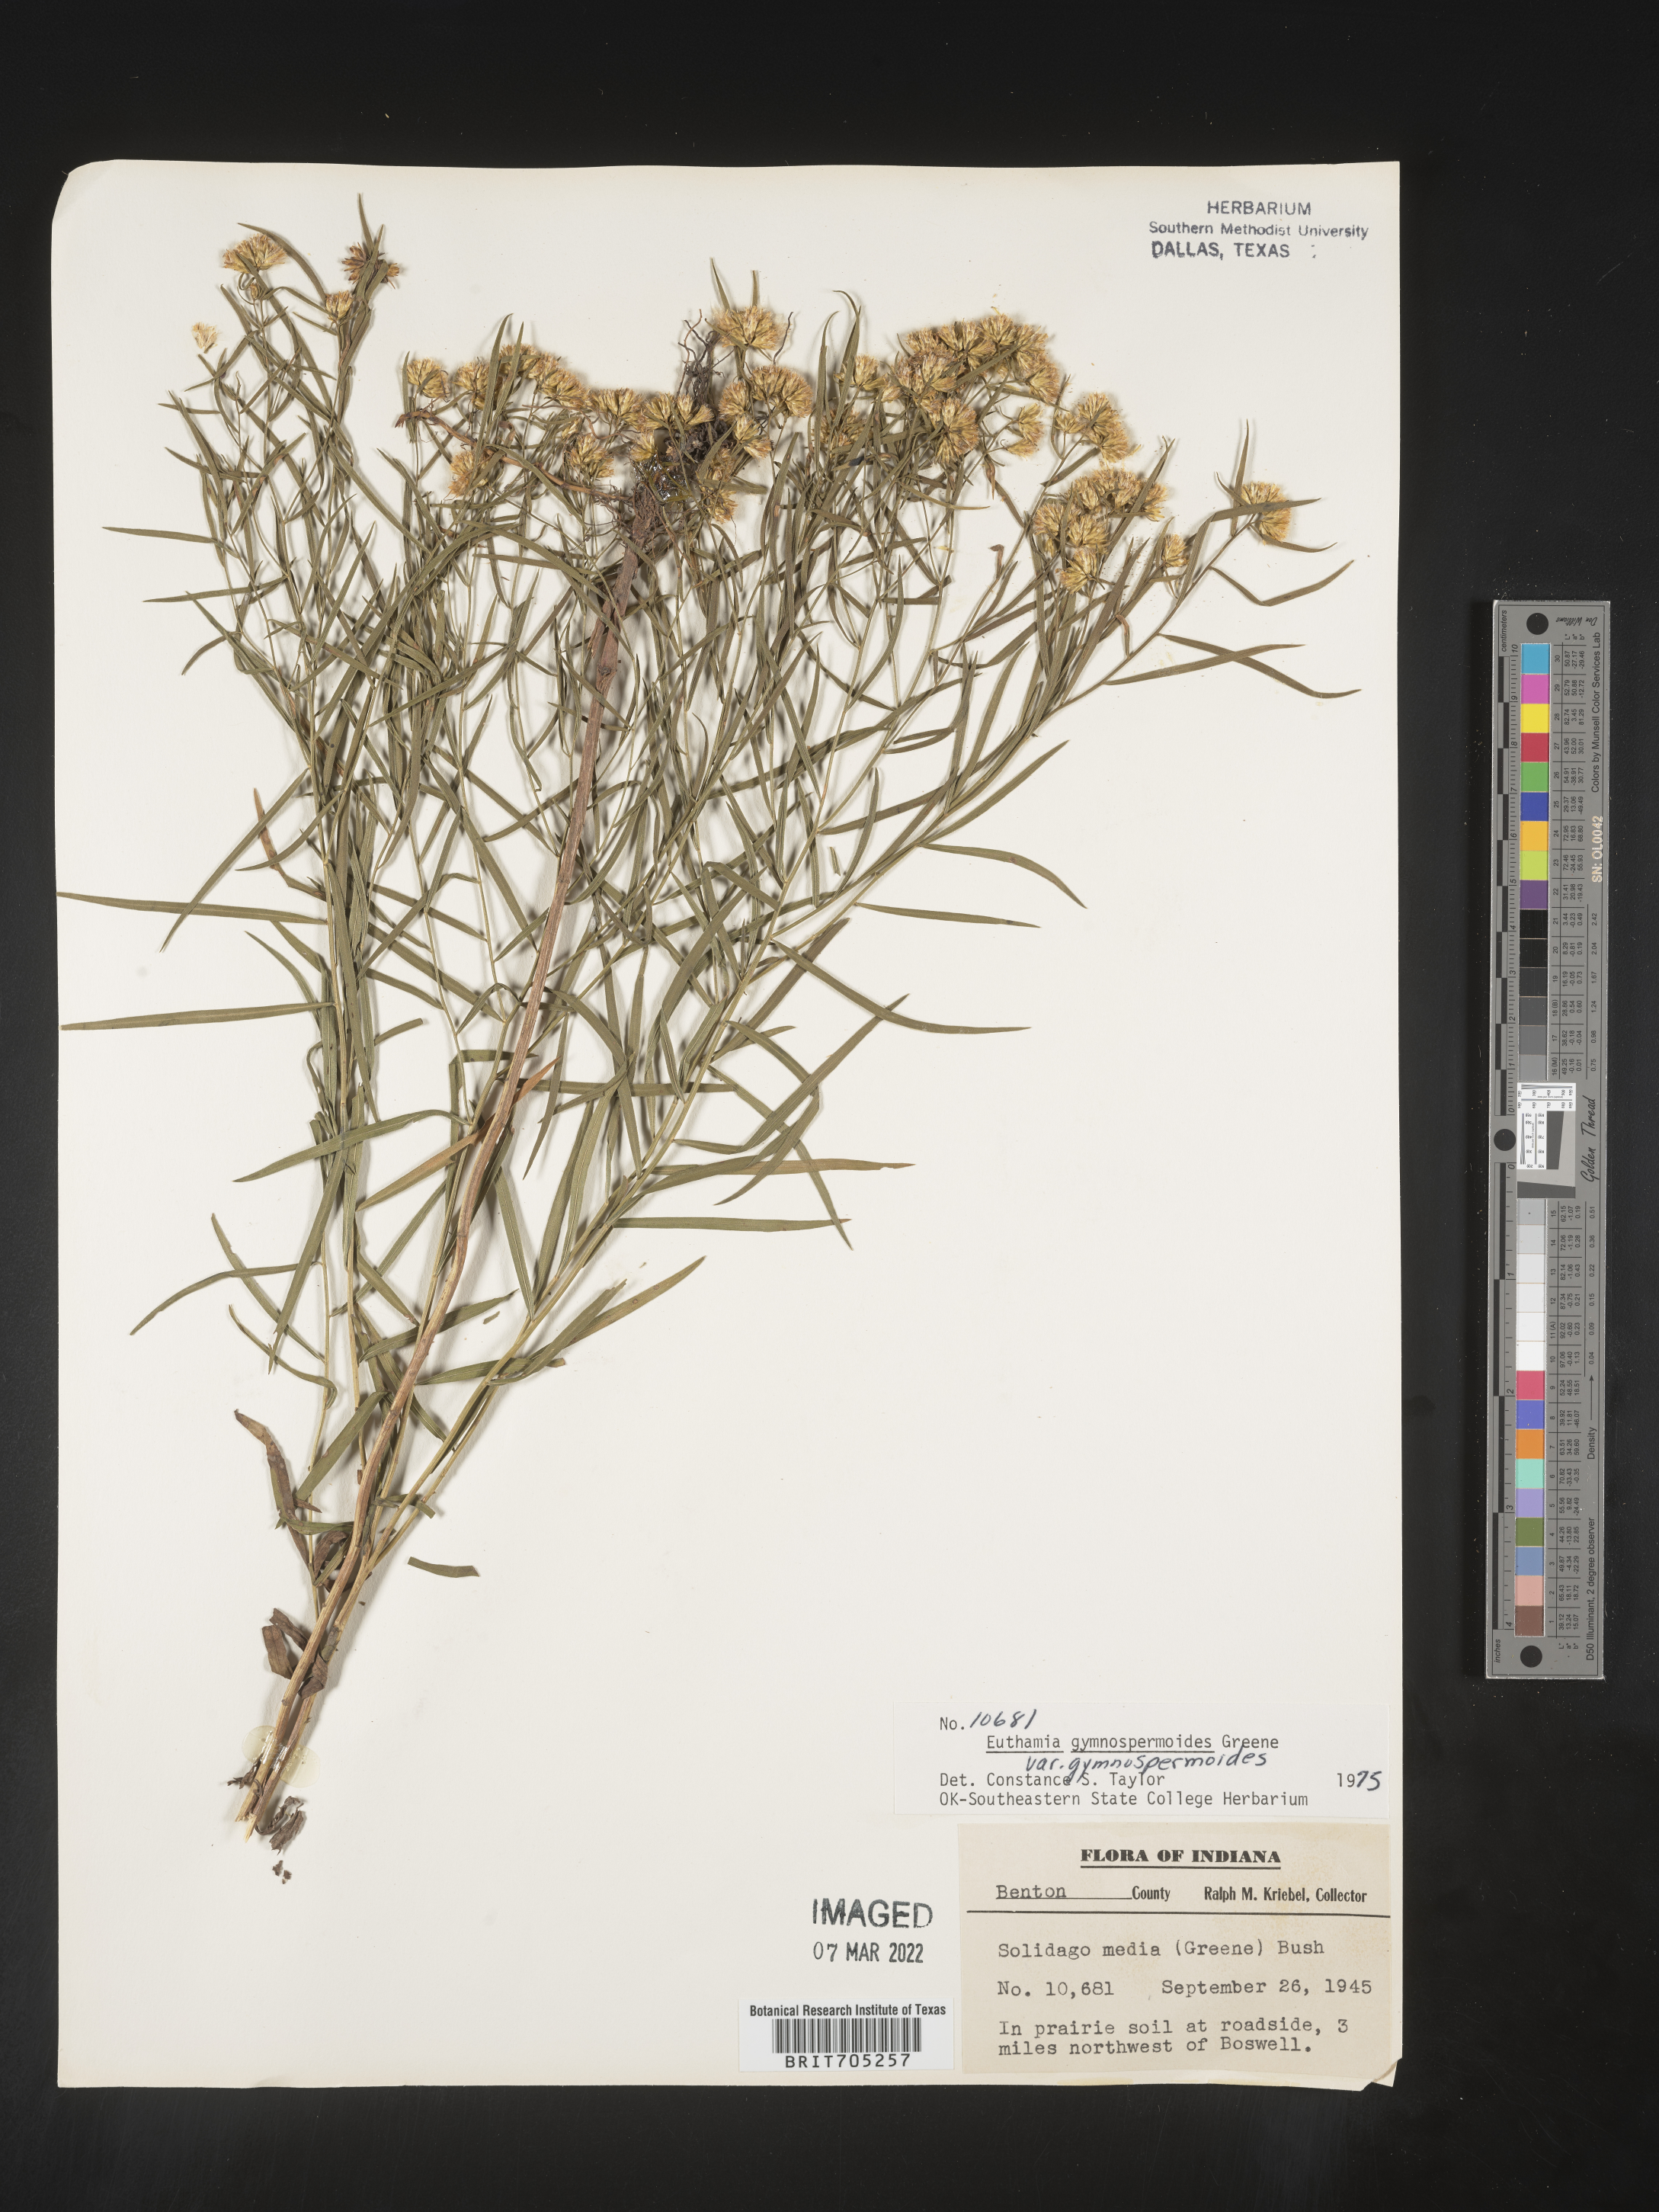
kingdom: Plantae
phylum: Tracheophyta
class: Magnoliopsida
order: Asterales
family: Asteraceae
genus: Euthamia
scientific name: Euthamia gymnospermoides
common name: Great plains goldentop
